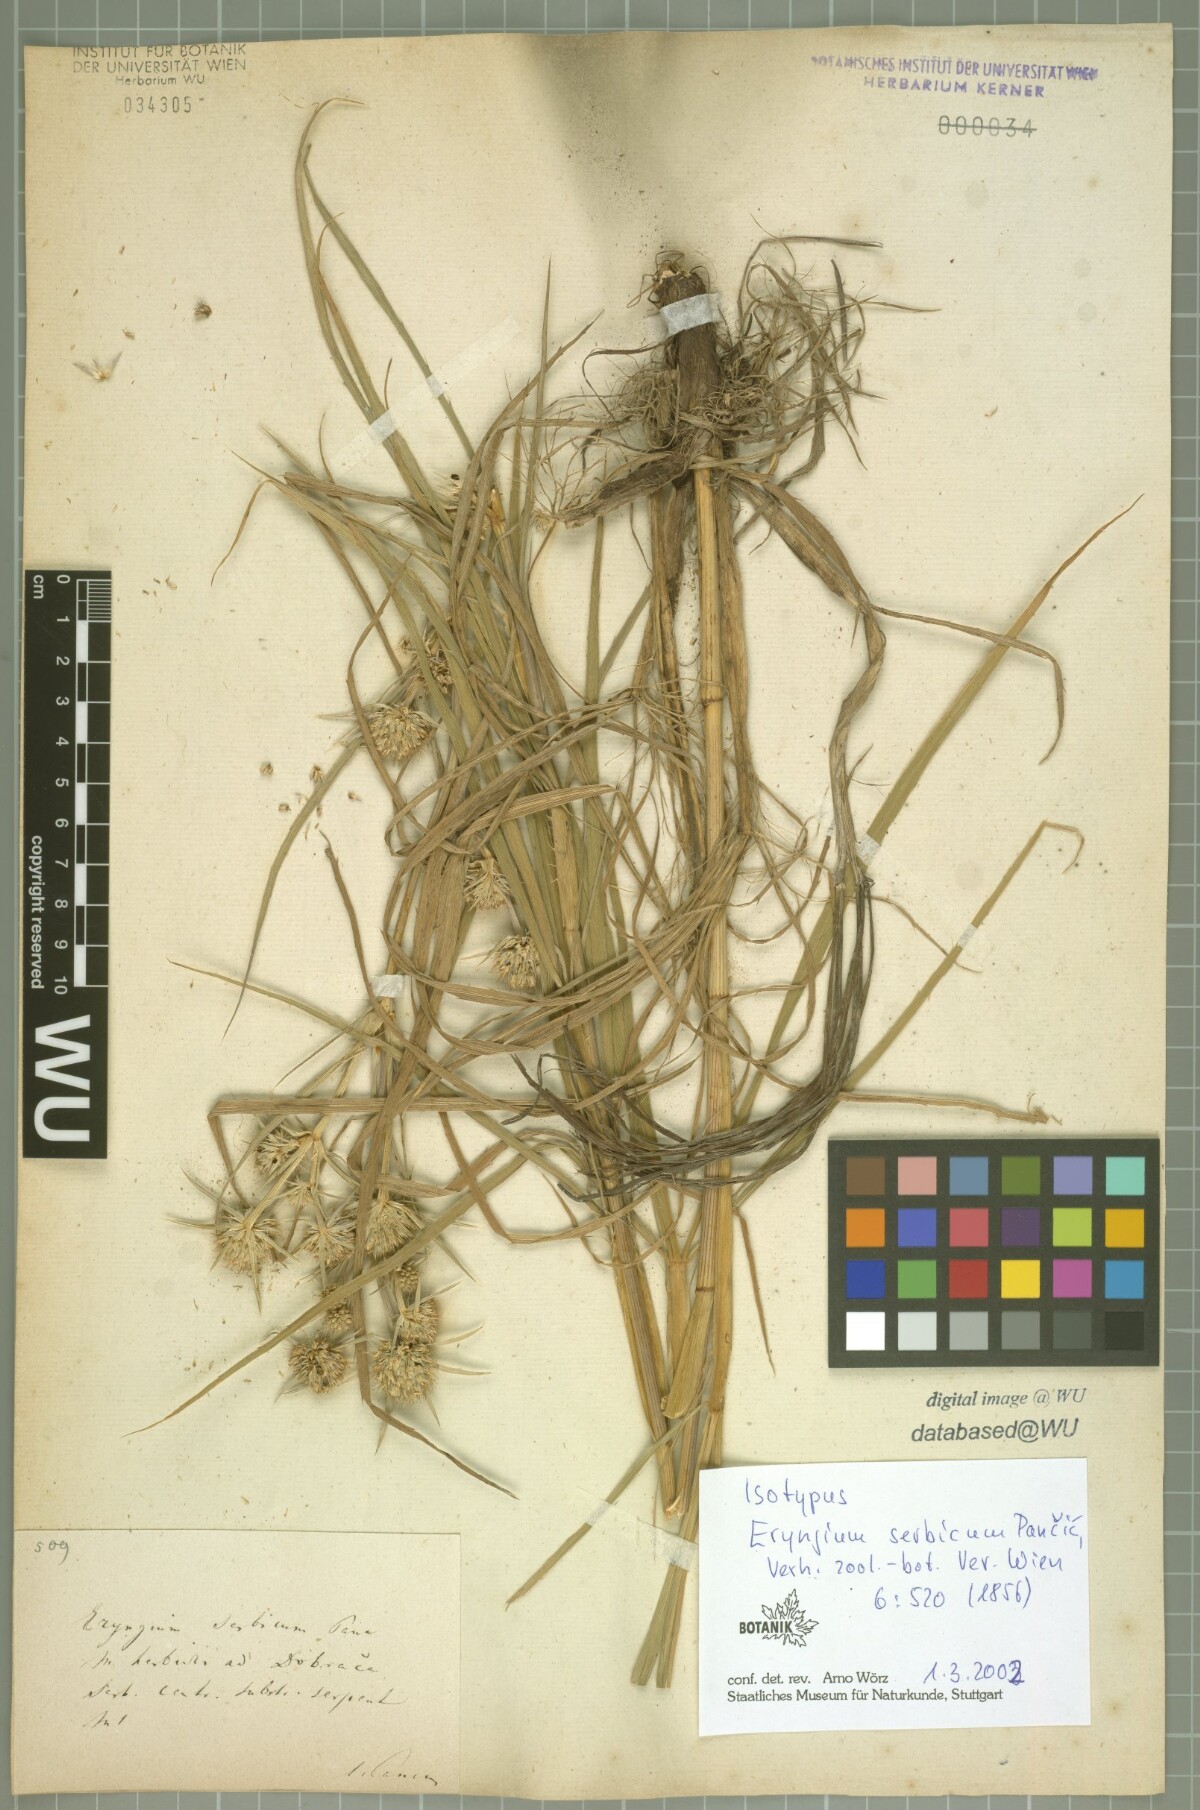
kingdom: Plantae
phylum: Tracheophyta
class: Magnoliopsida
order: Apiales
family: Apiaceae
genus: Eryngium
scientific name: Eryngium serbicum
